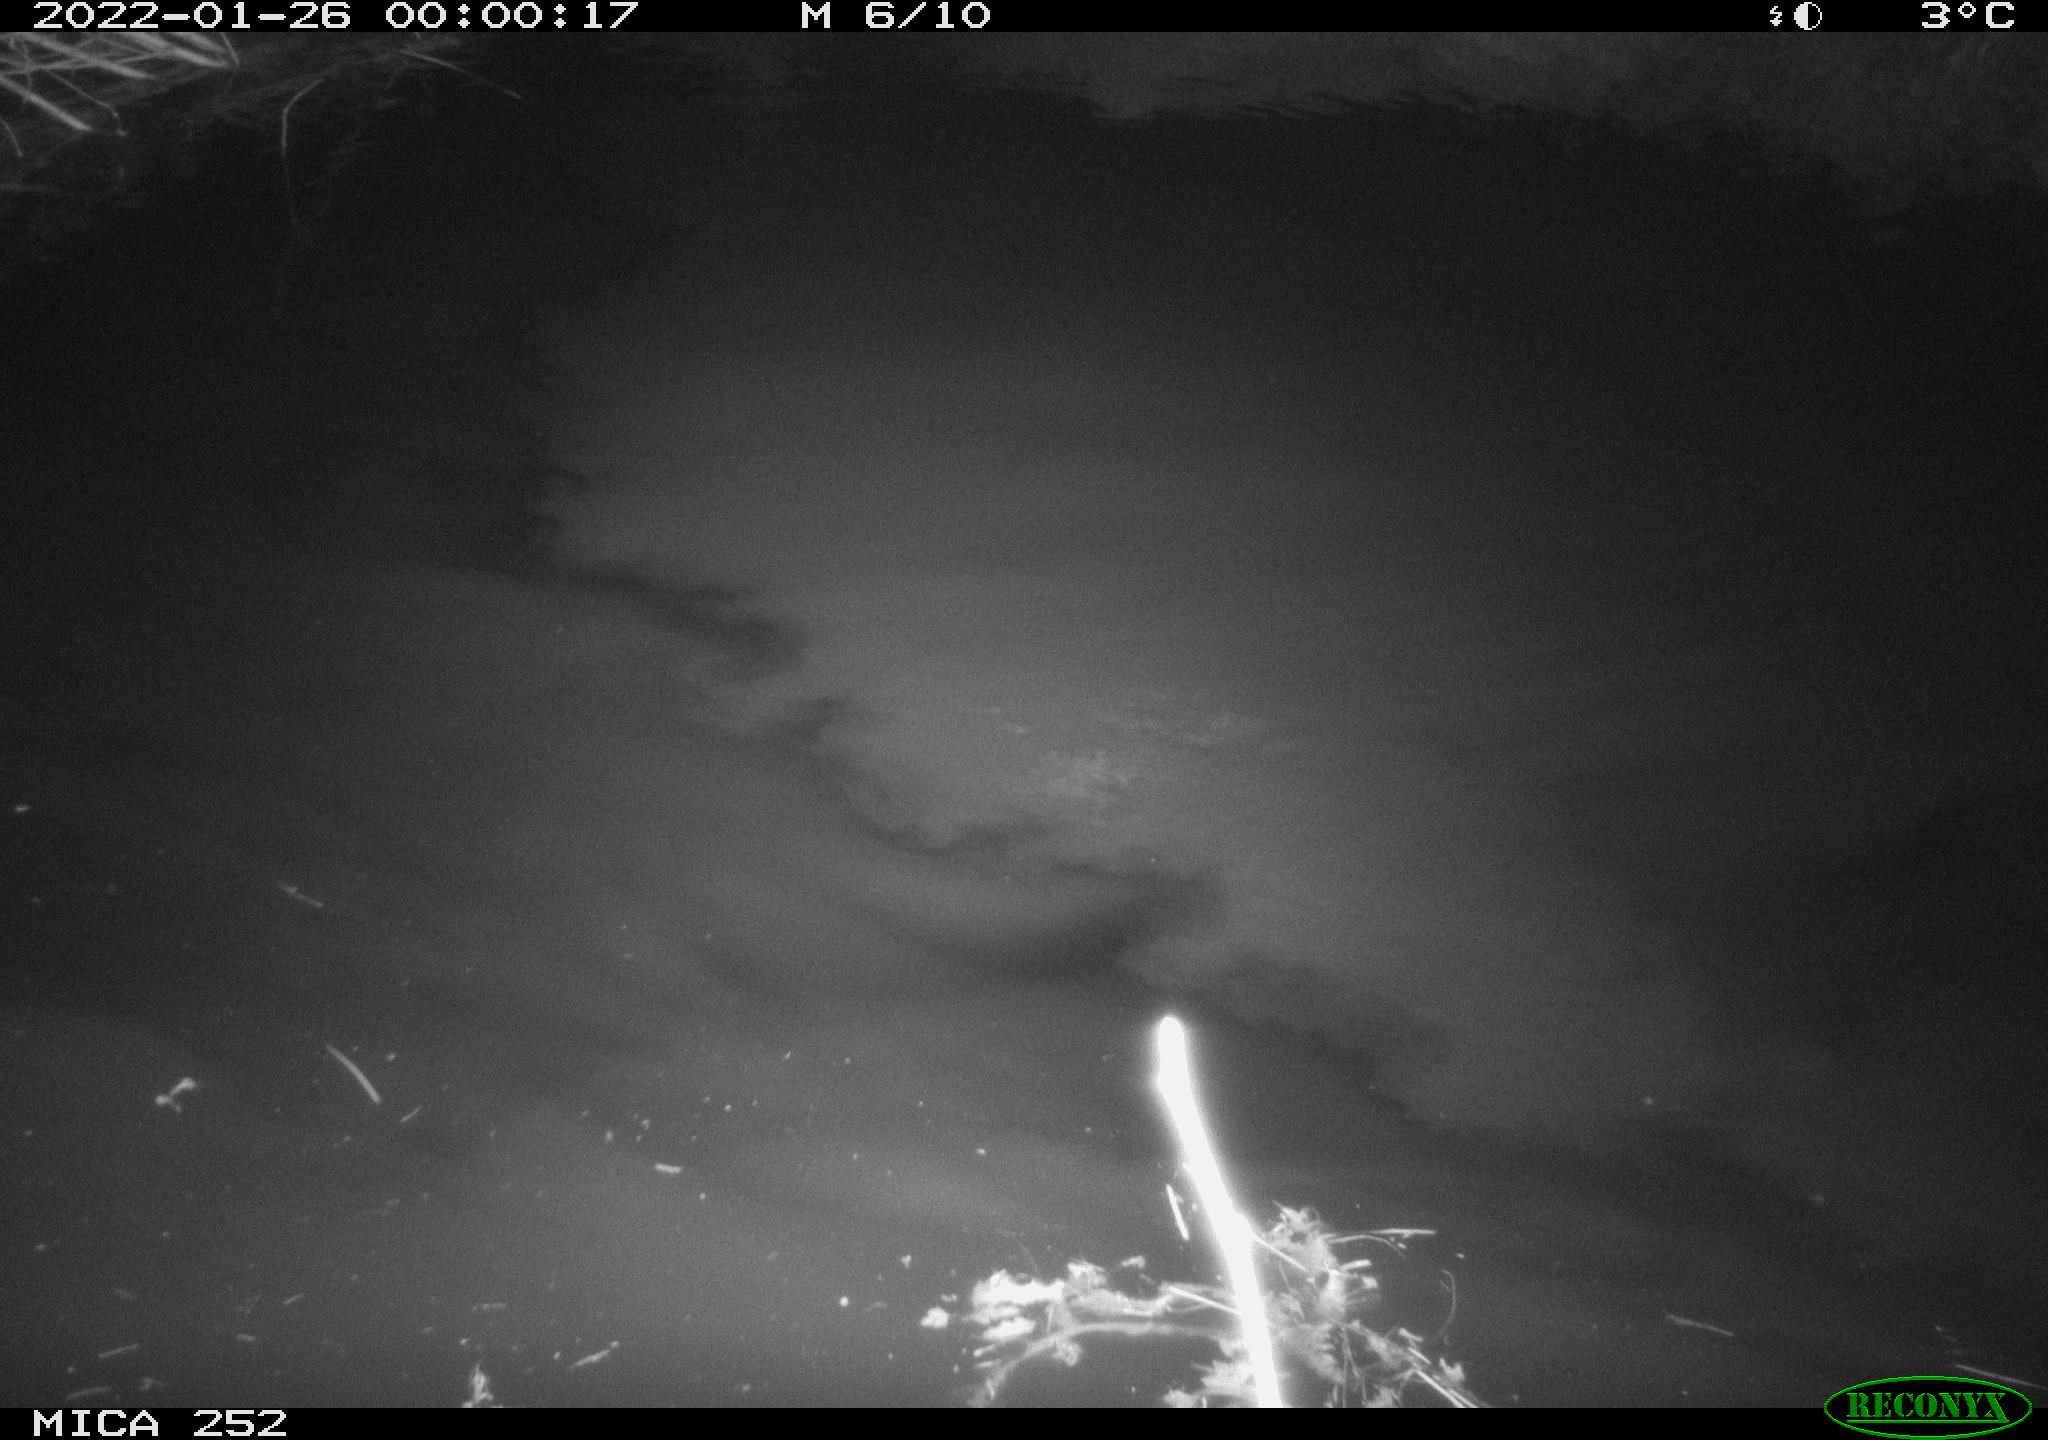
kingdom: Animalia
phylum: Chordata
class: Mammalia
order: Rodentia
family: Castoridae
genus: Castor
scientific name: Castor fiber
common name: Eurasian beaver
